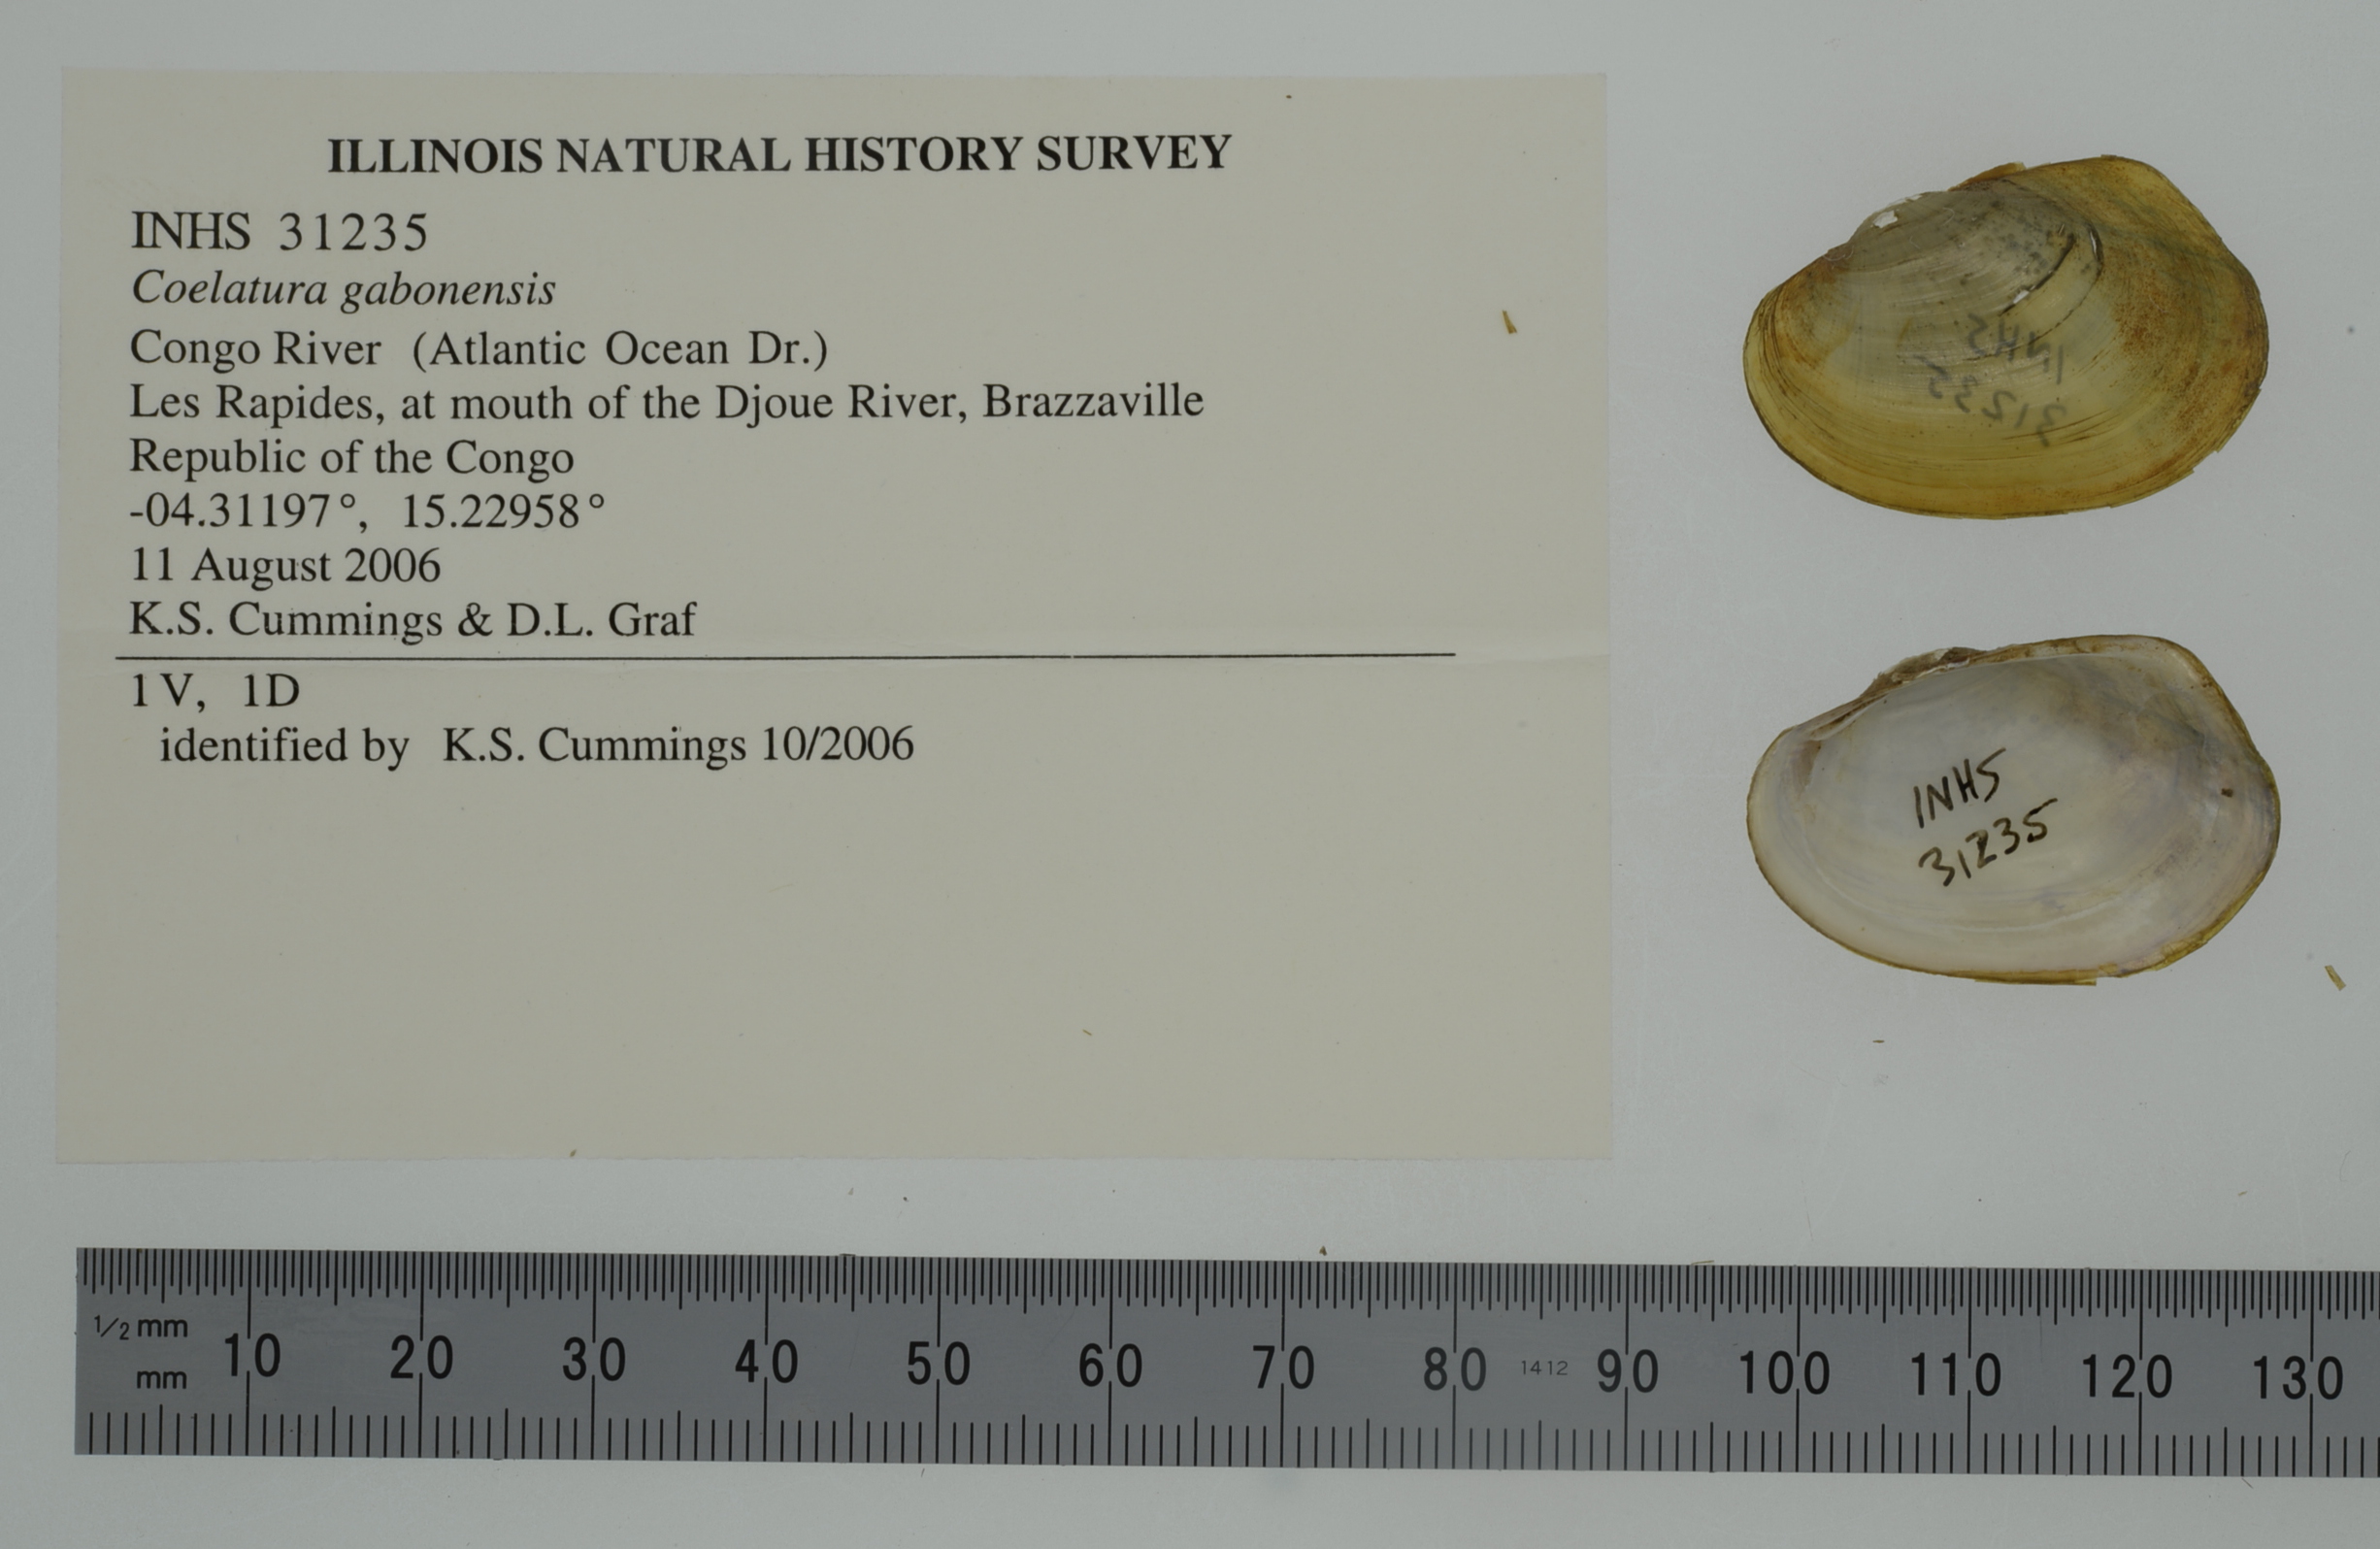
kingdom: Animalia
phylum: Mollusca
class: Bivalvia
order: Unionida
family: Unionidae
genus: Coelatura
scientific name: Coelatura gabonensis
